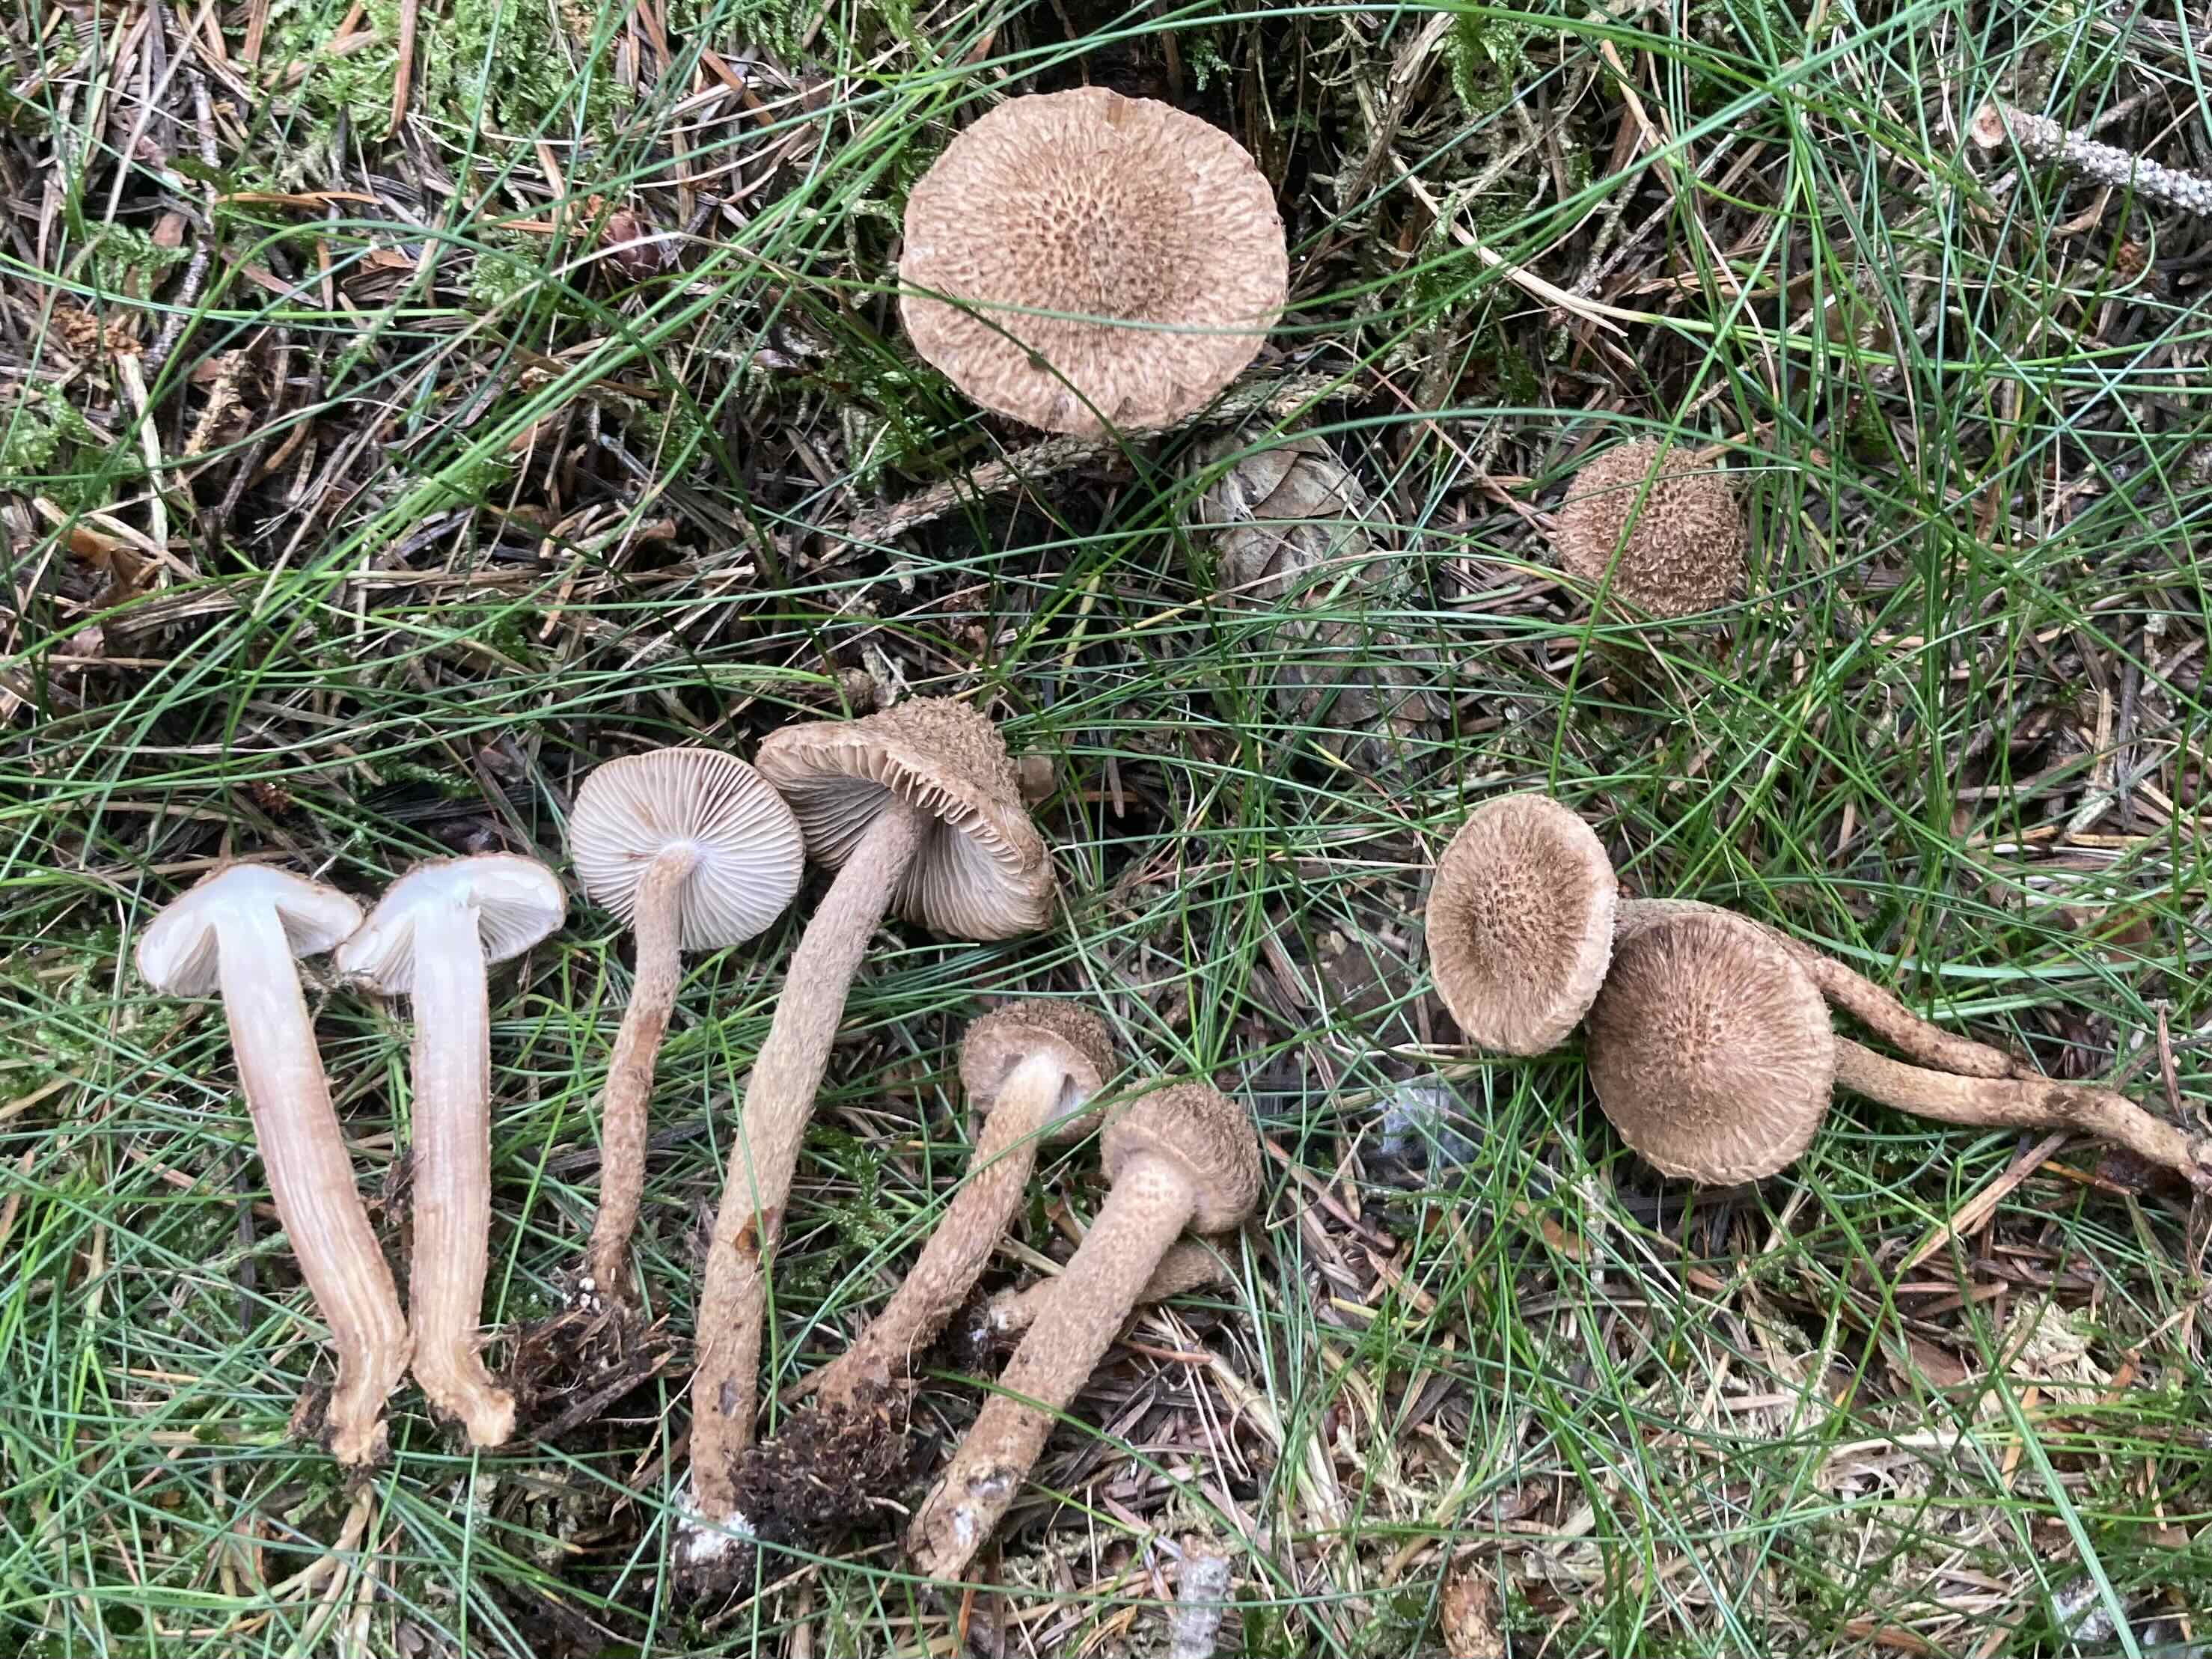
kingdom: Fungi
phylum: Basidiomycota
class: Agaricomycetes
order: Agaricales
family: Inocybaceae
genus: Inocybe
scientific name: Inocybe
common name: trævlhat
